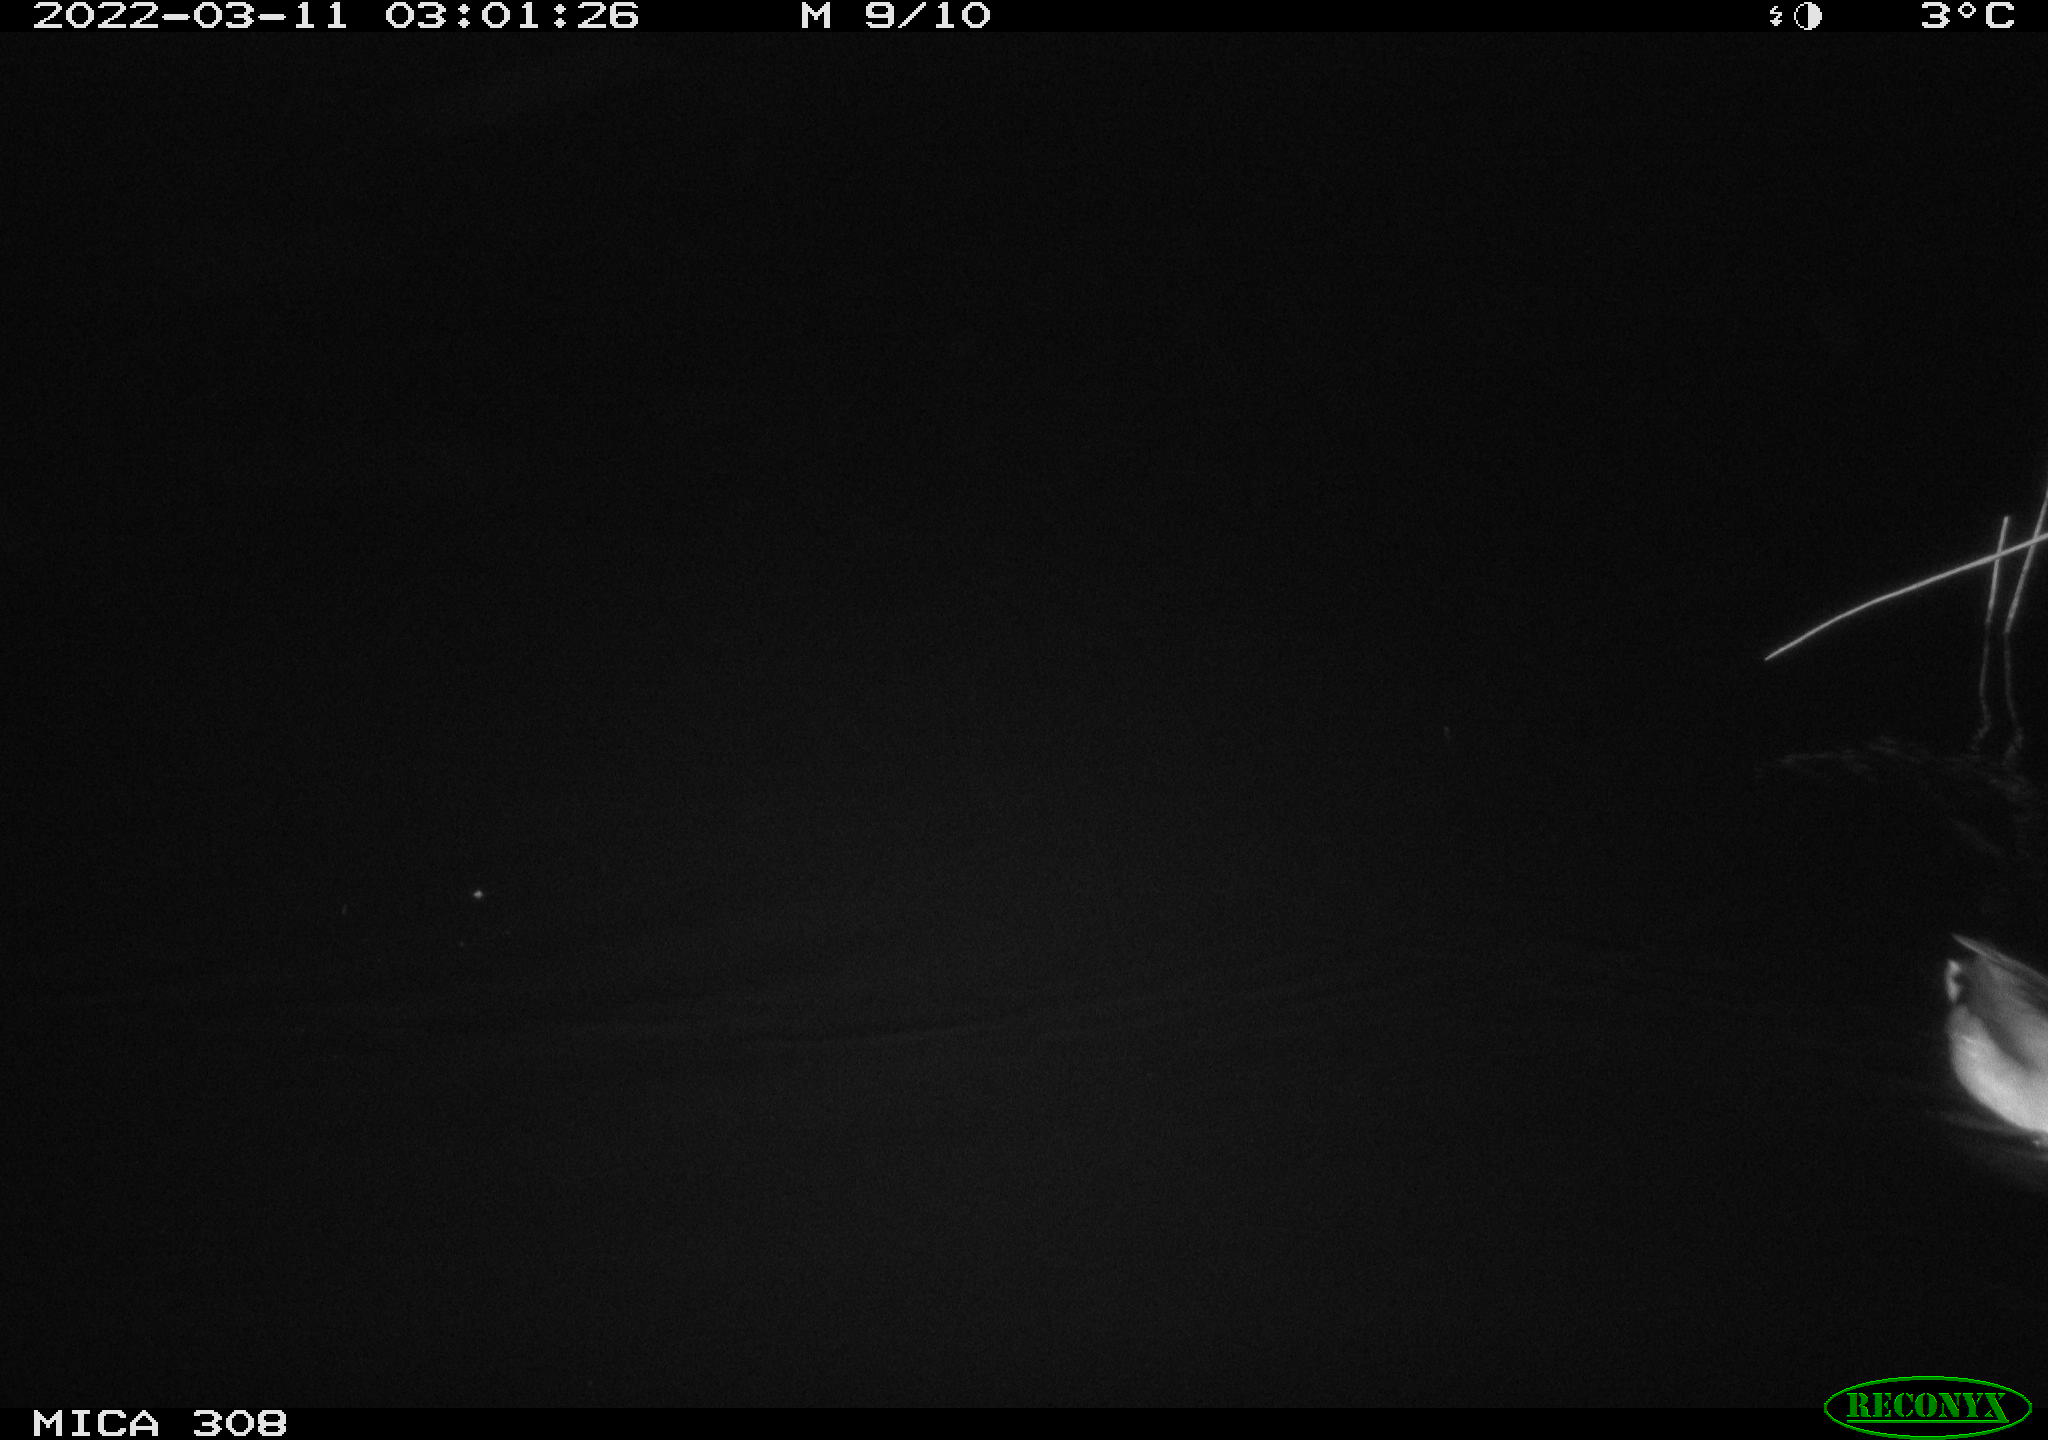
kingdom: Animalia
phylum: Chordata
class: Aves
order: Anseriformes
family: Anatidae
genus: Anas
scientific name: Anas platyrhynchos
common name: Mallard
